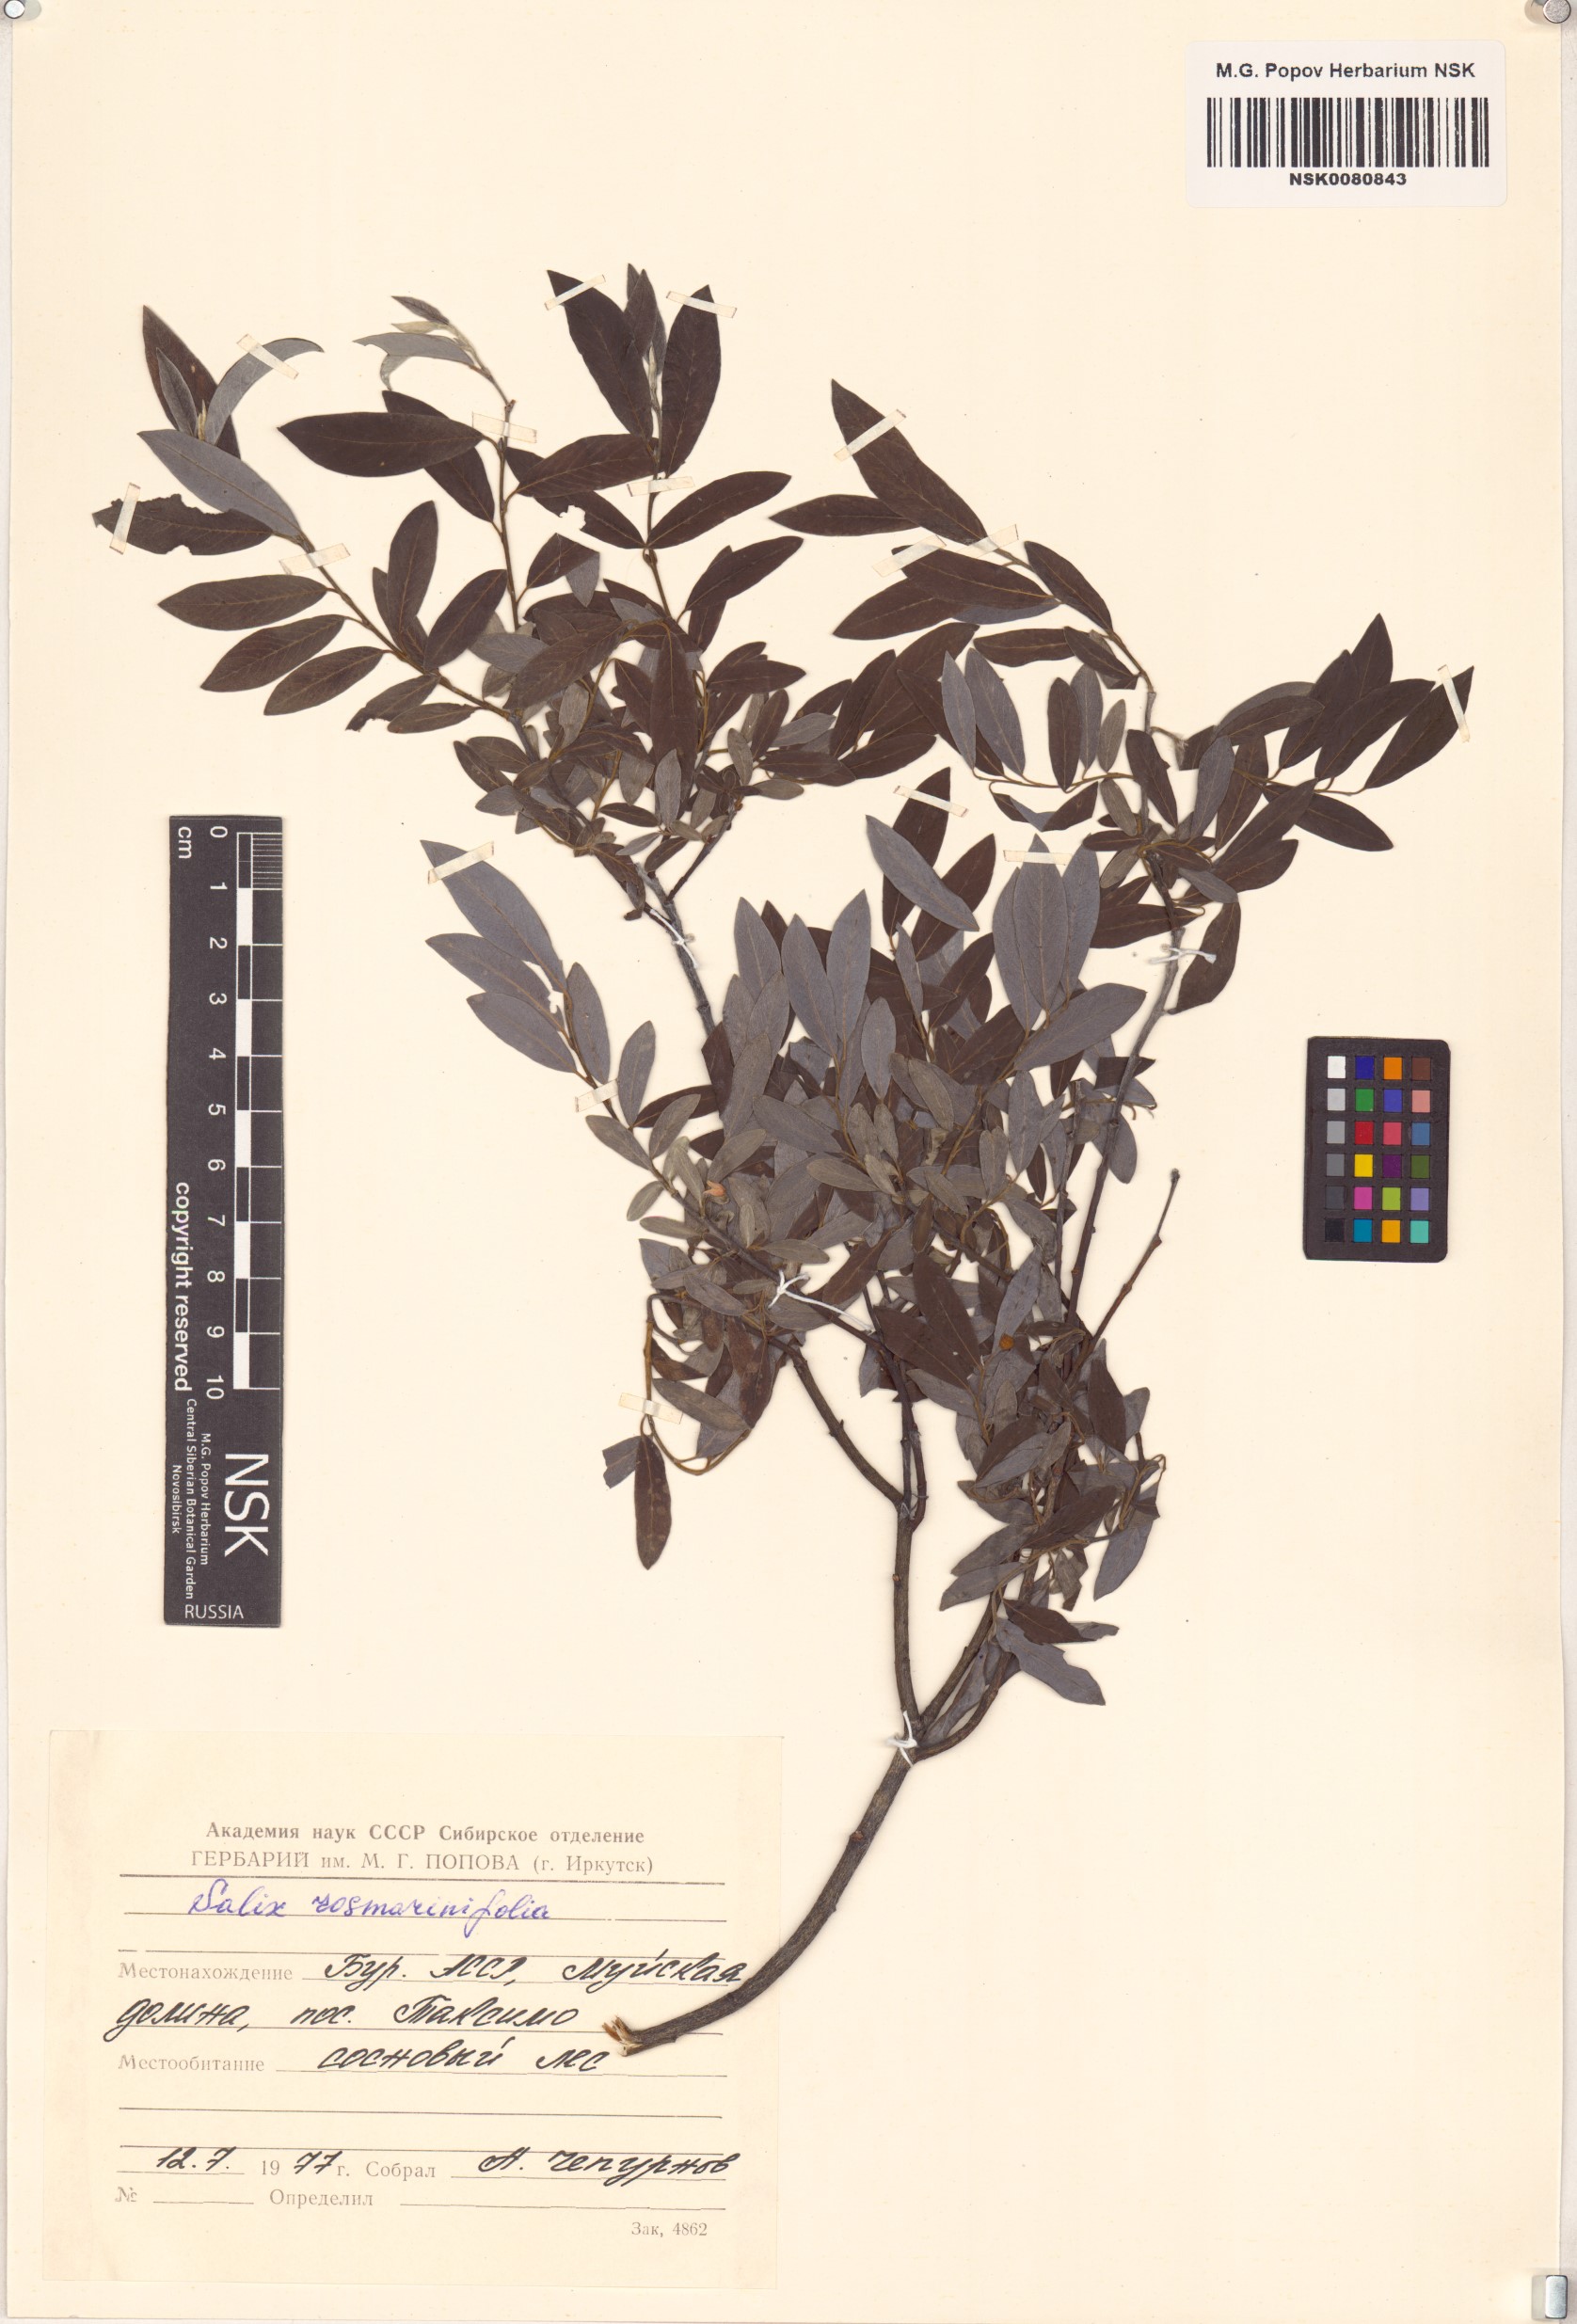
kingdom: Plantae
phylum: Tracheophyta
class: Magnoliopsida
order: Malpighiales
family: Salicaceae
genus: Salix
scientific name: Salix rosmarinifolia
